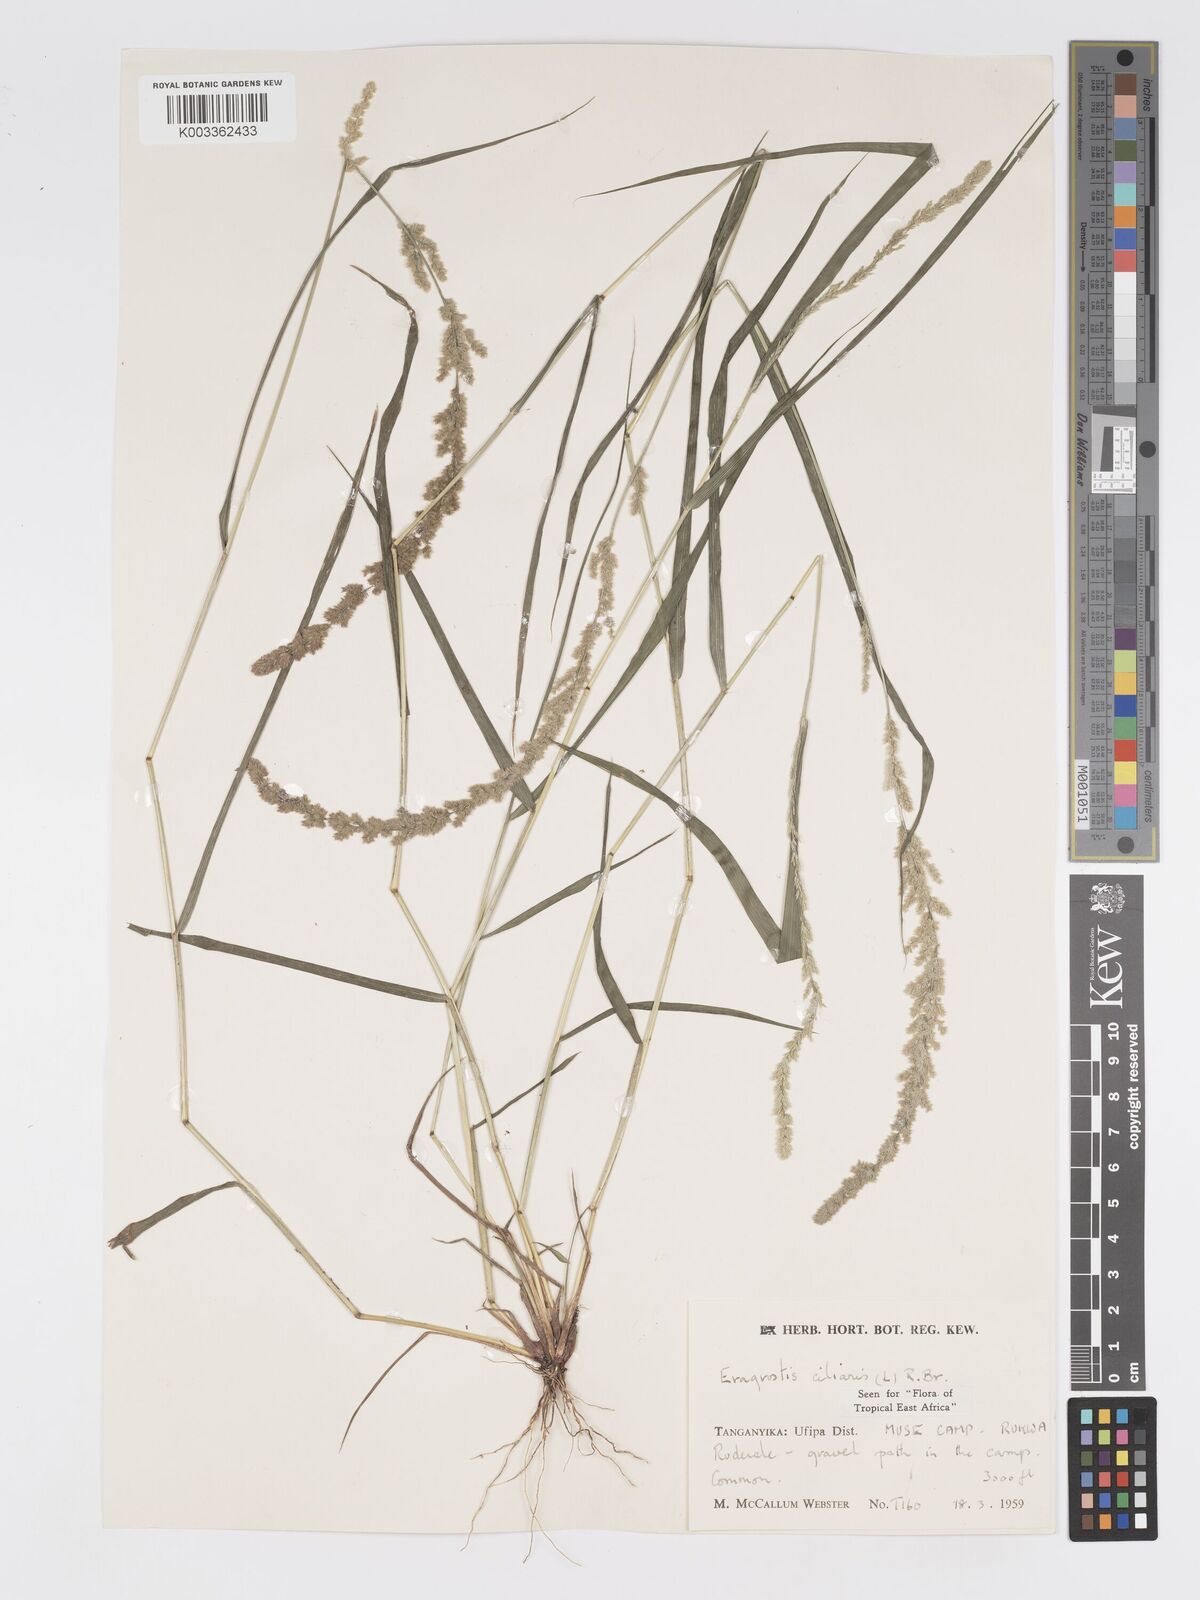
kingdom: Plantae
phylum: Tracheophyta
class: Liliopsida
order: Poales
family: Poaceae
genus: Eragrostis
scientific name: Eragrostis ciliaris
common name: Gophertail lovegrass
